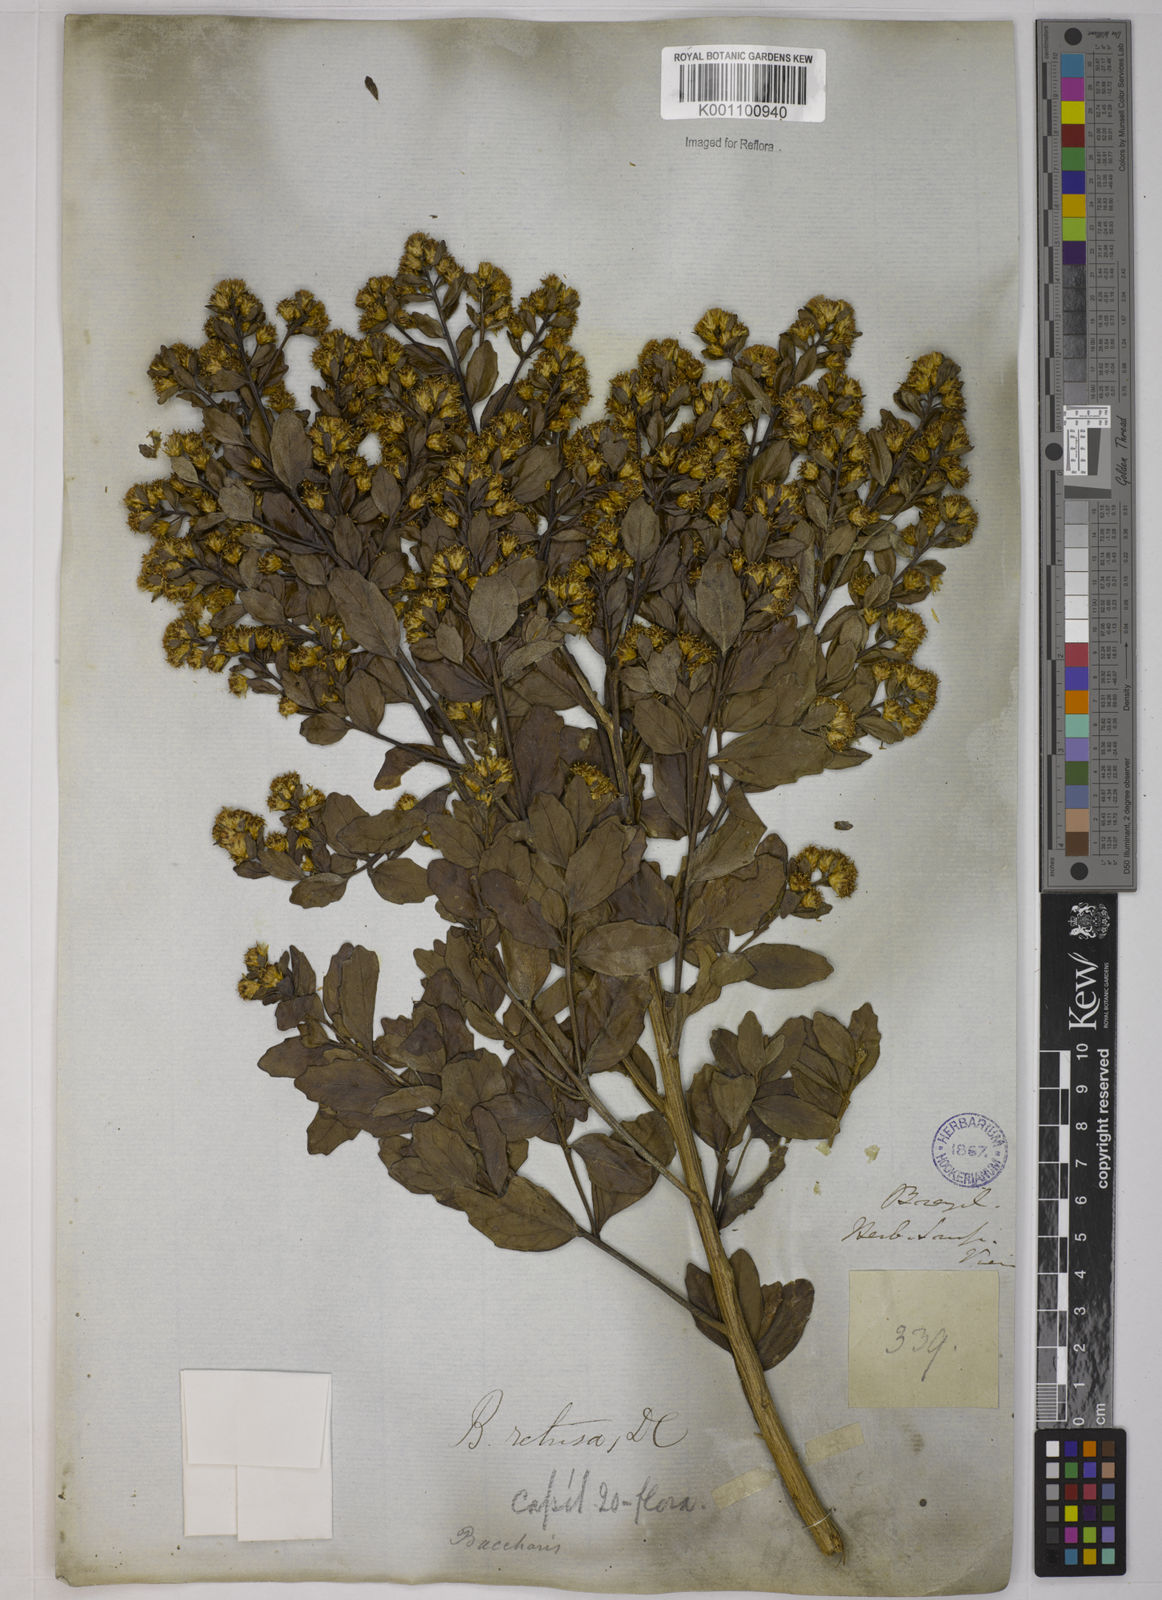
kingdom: Plantae
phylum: Tracheophyta
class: Magnoliopsida
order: Asterales
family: Asteraceae
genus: Baccharis
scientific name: Baccharis retusa
